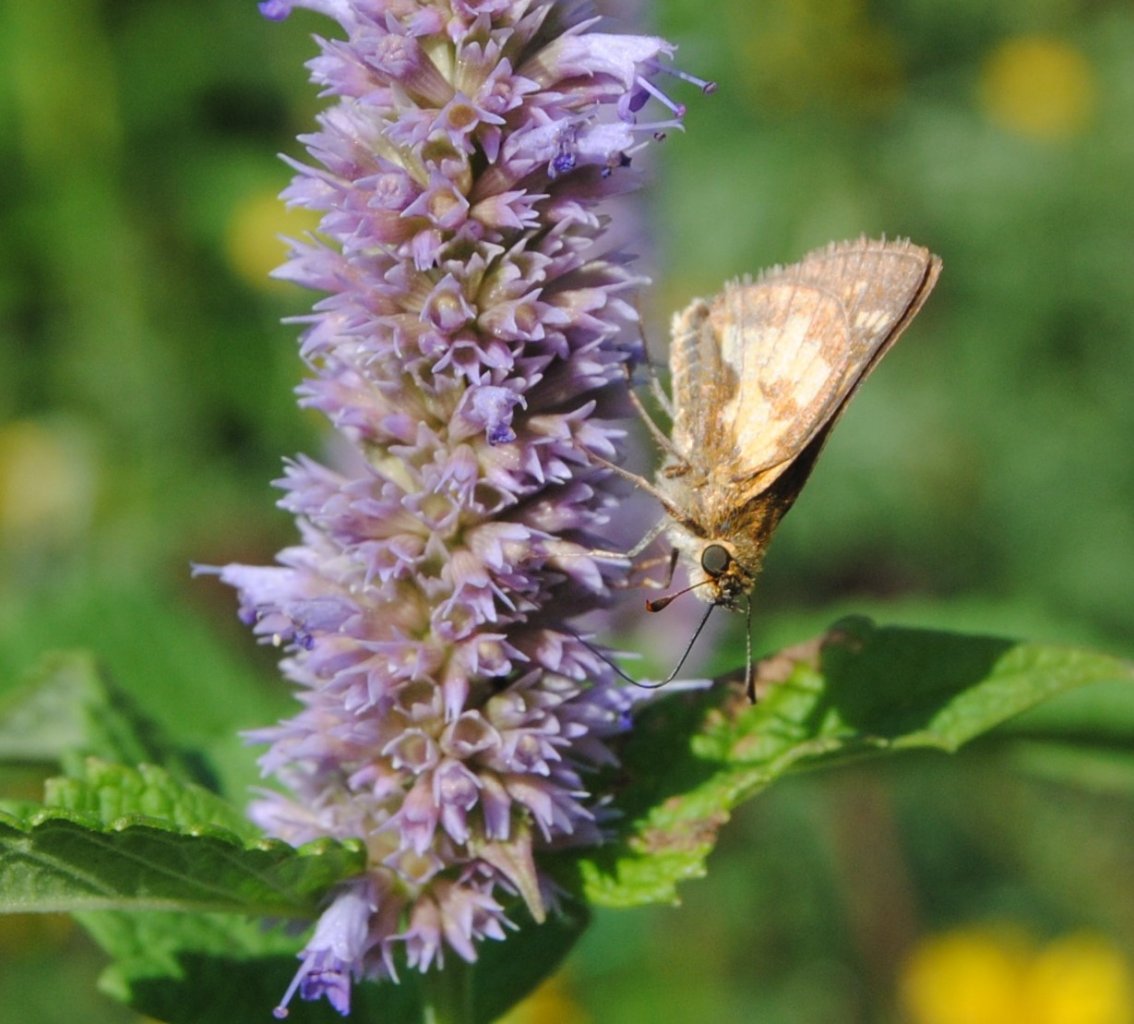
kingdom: Animalia
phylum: Arthropoda
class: Insecta
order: Lepidoptera
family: Hesperiidae
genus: Polites
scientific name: Polites coras
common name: Peck's Skipper
